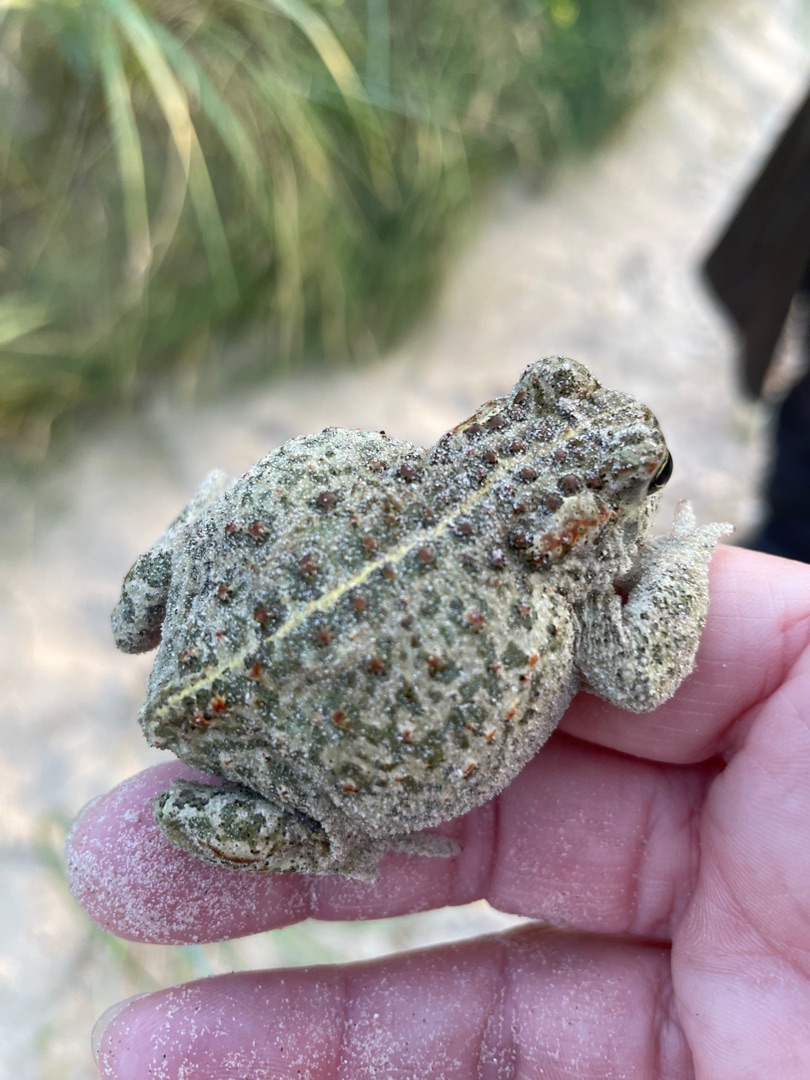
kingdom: Animalia
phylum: Chordata
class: Amphibia
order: Anura
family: Bufonidae
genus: Epidalea
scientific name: Epidalea calamita
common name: Strandtudse
